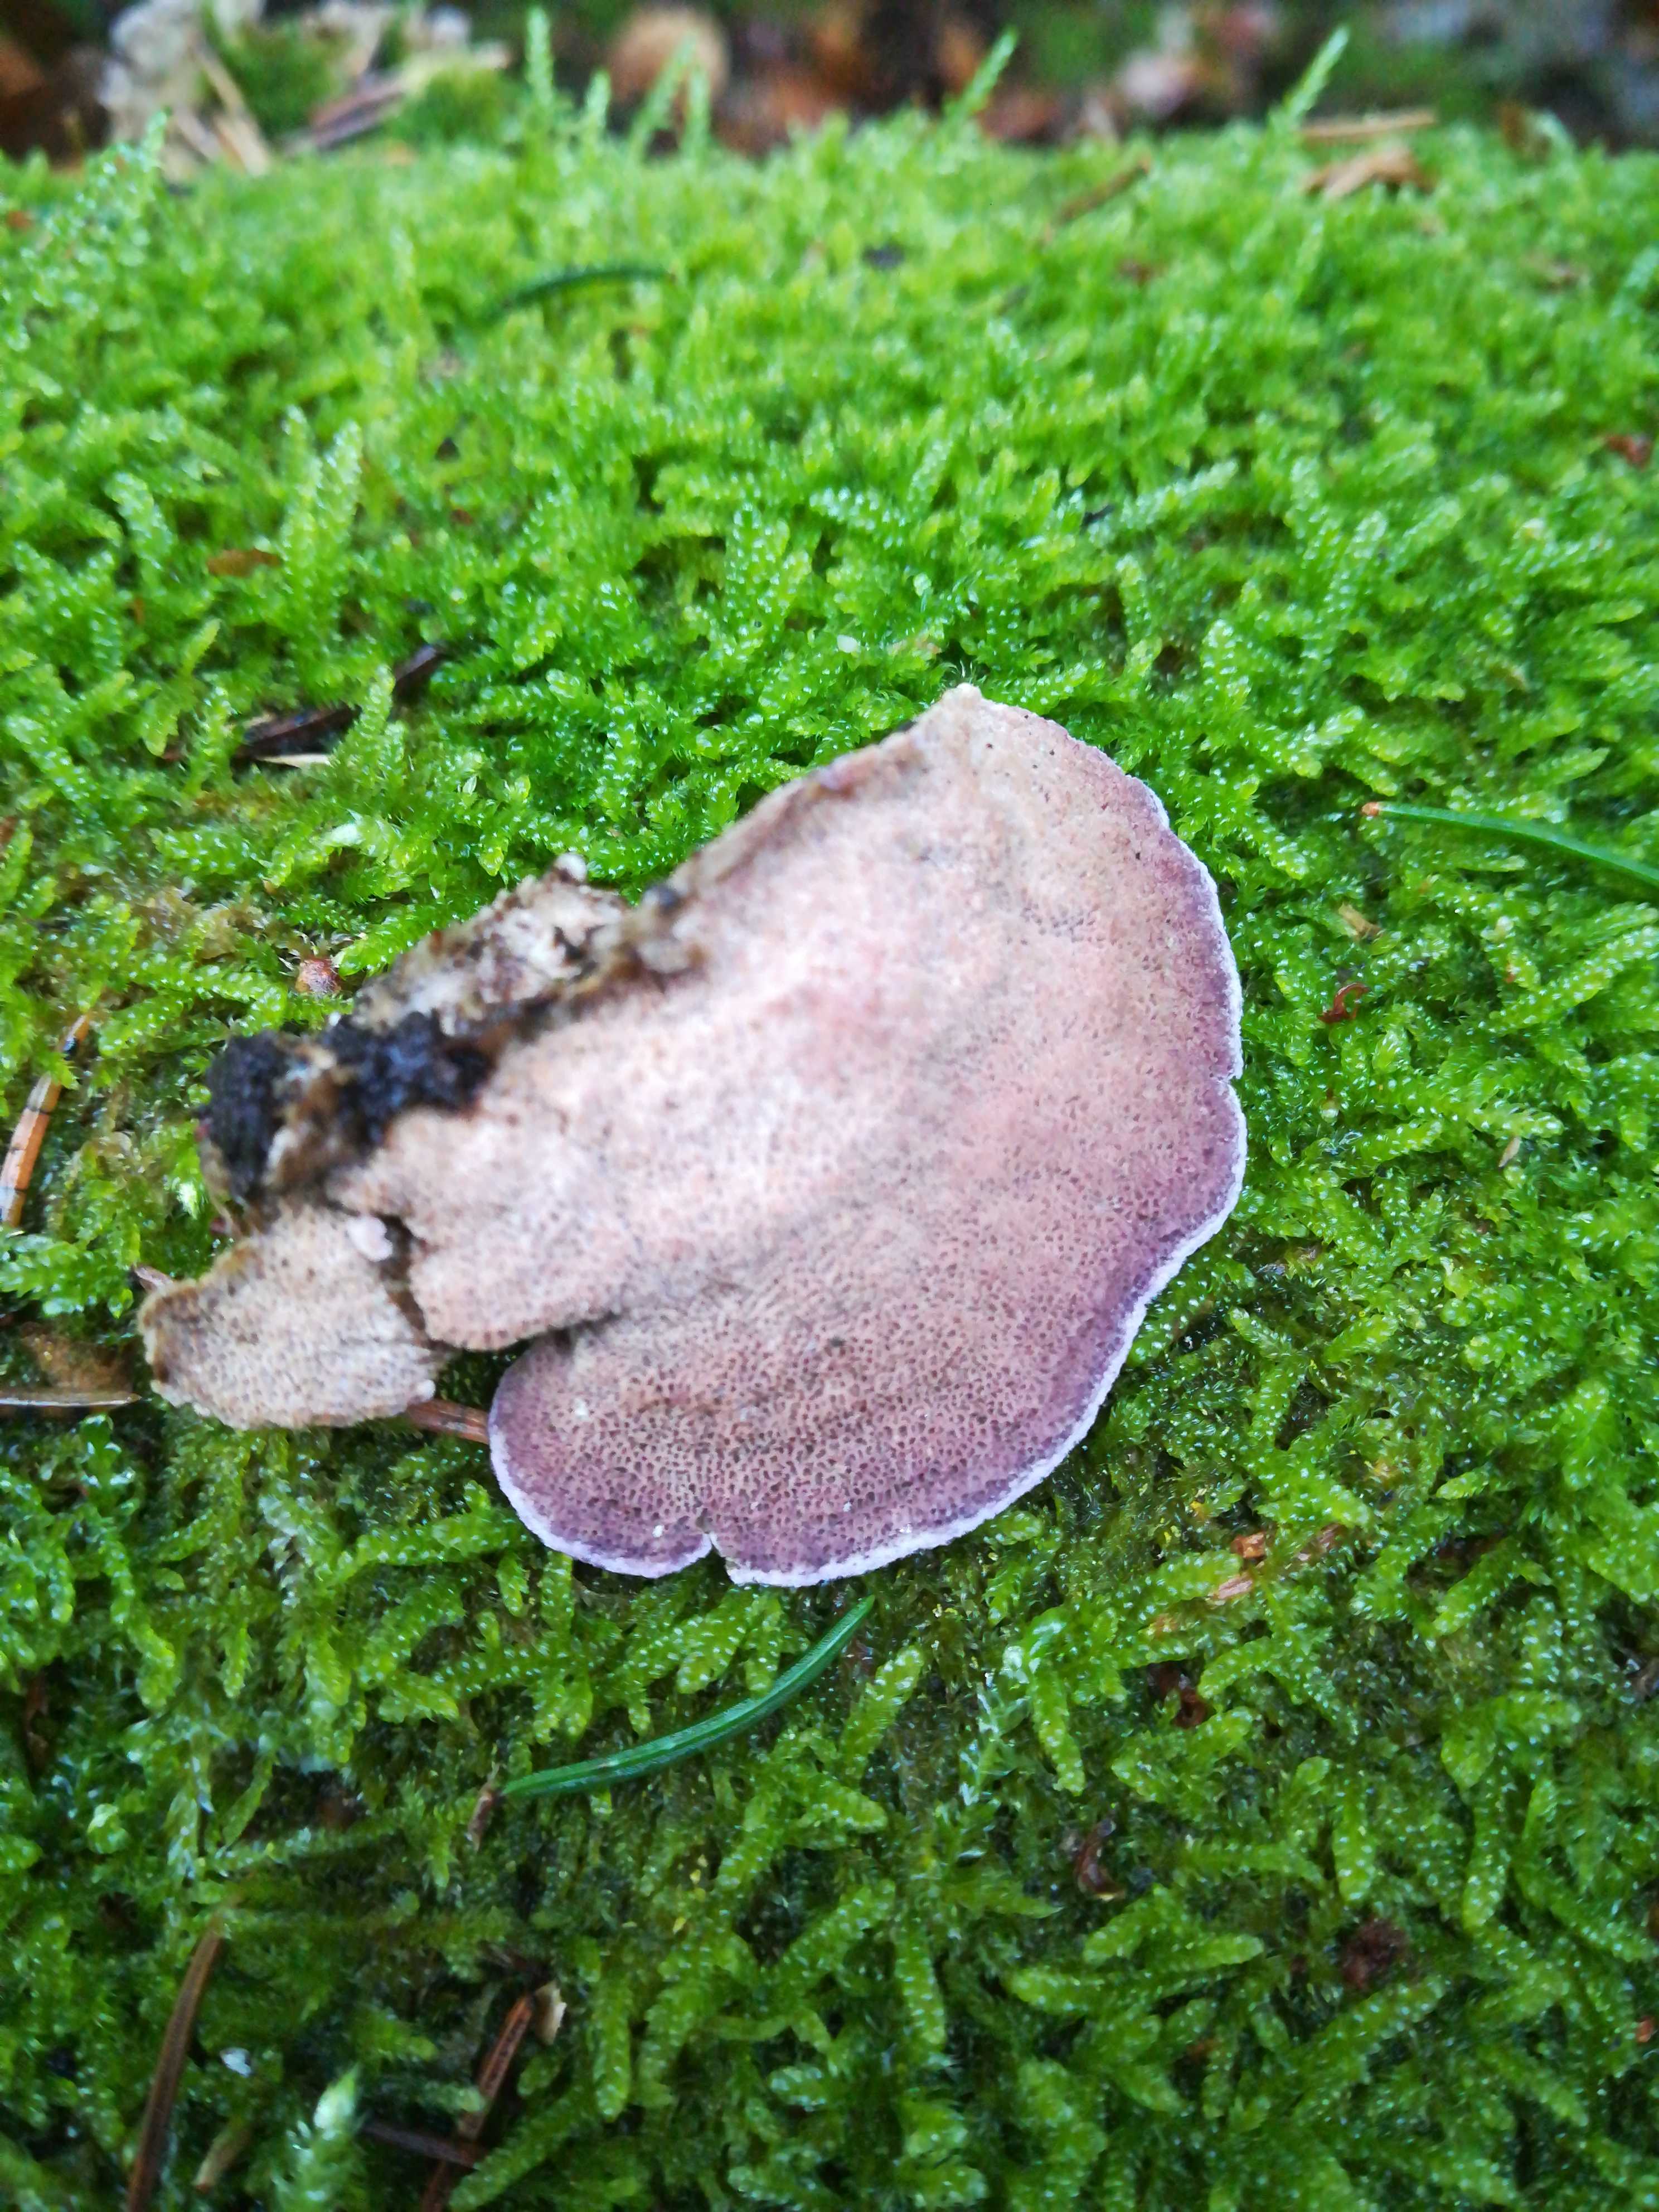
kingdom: Fungi
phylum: Basidiomycota
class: Agaricomycetes
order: Hymenochaetales
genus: Trichaptum
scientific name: Trichaptum abietinum
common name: almindelig violporesvamp
